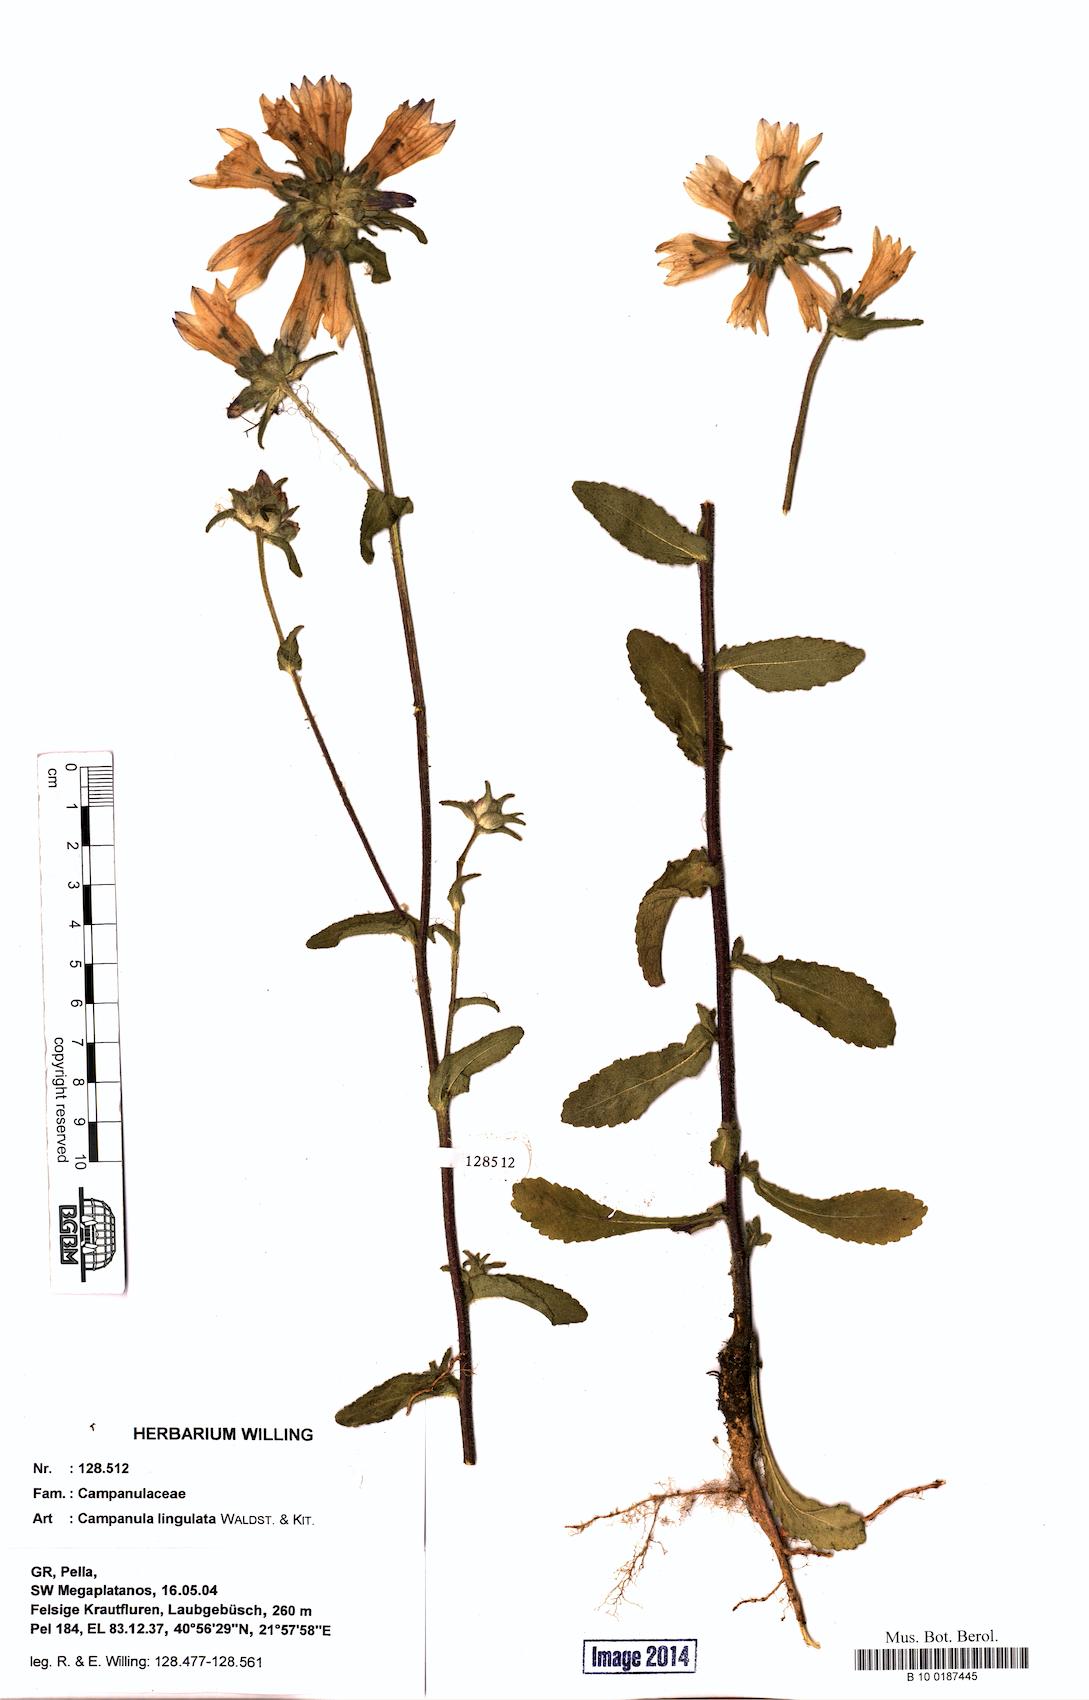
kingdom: Plantae
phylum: Tracheophyta
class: Magnoliopsida
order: Asterales
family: Campanulaceae
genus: Campanula
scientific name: Campanula lingulata
